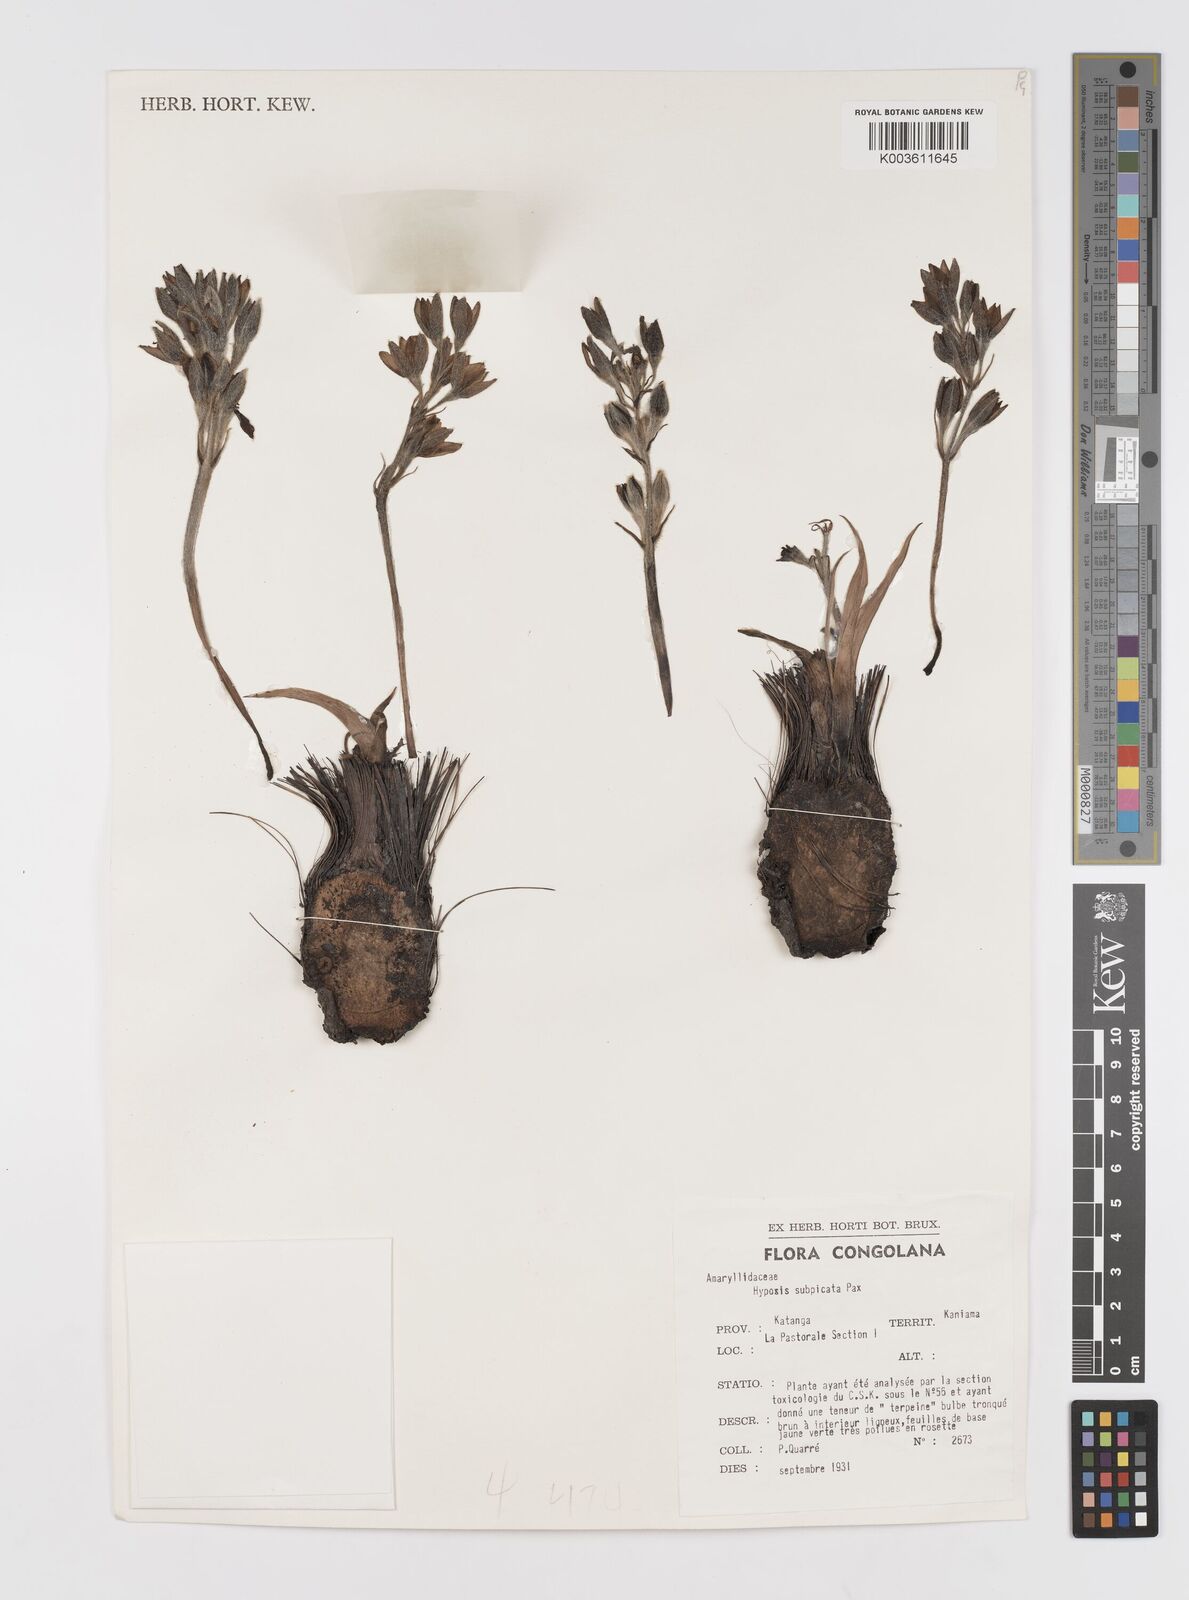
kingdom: Plantae
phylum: Tracheophyta
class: Liliopsida
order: Asparagales
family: Hypoxidaceae
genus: Hypoxis
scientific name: Hypoxis polystachya
